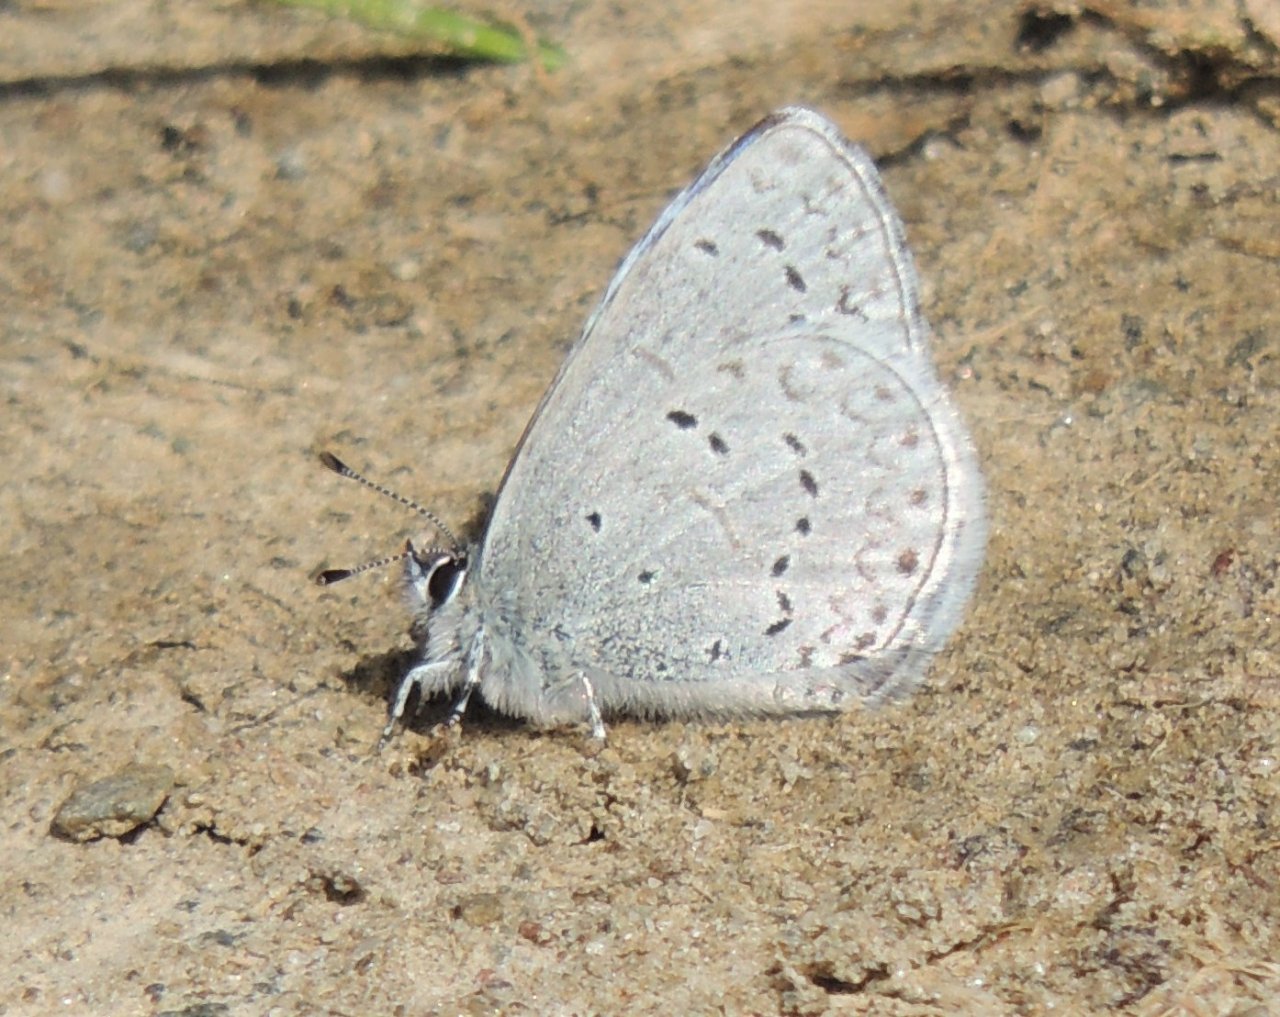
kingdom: Animalia
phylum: Arthropoda
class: Insecta
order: Lepidoptera
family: Lycaenidae
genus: Celastrina
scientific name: Celastrina
